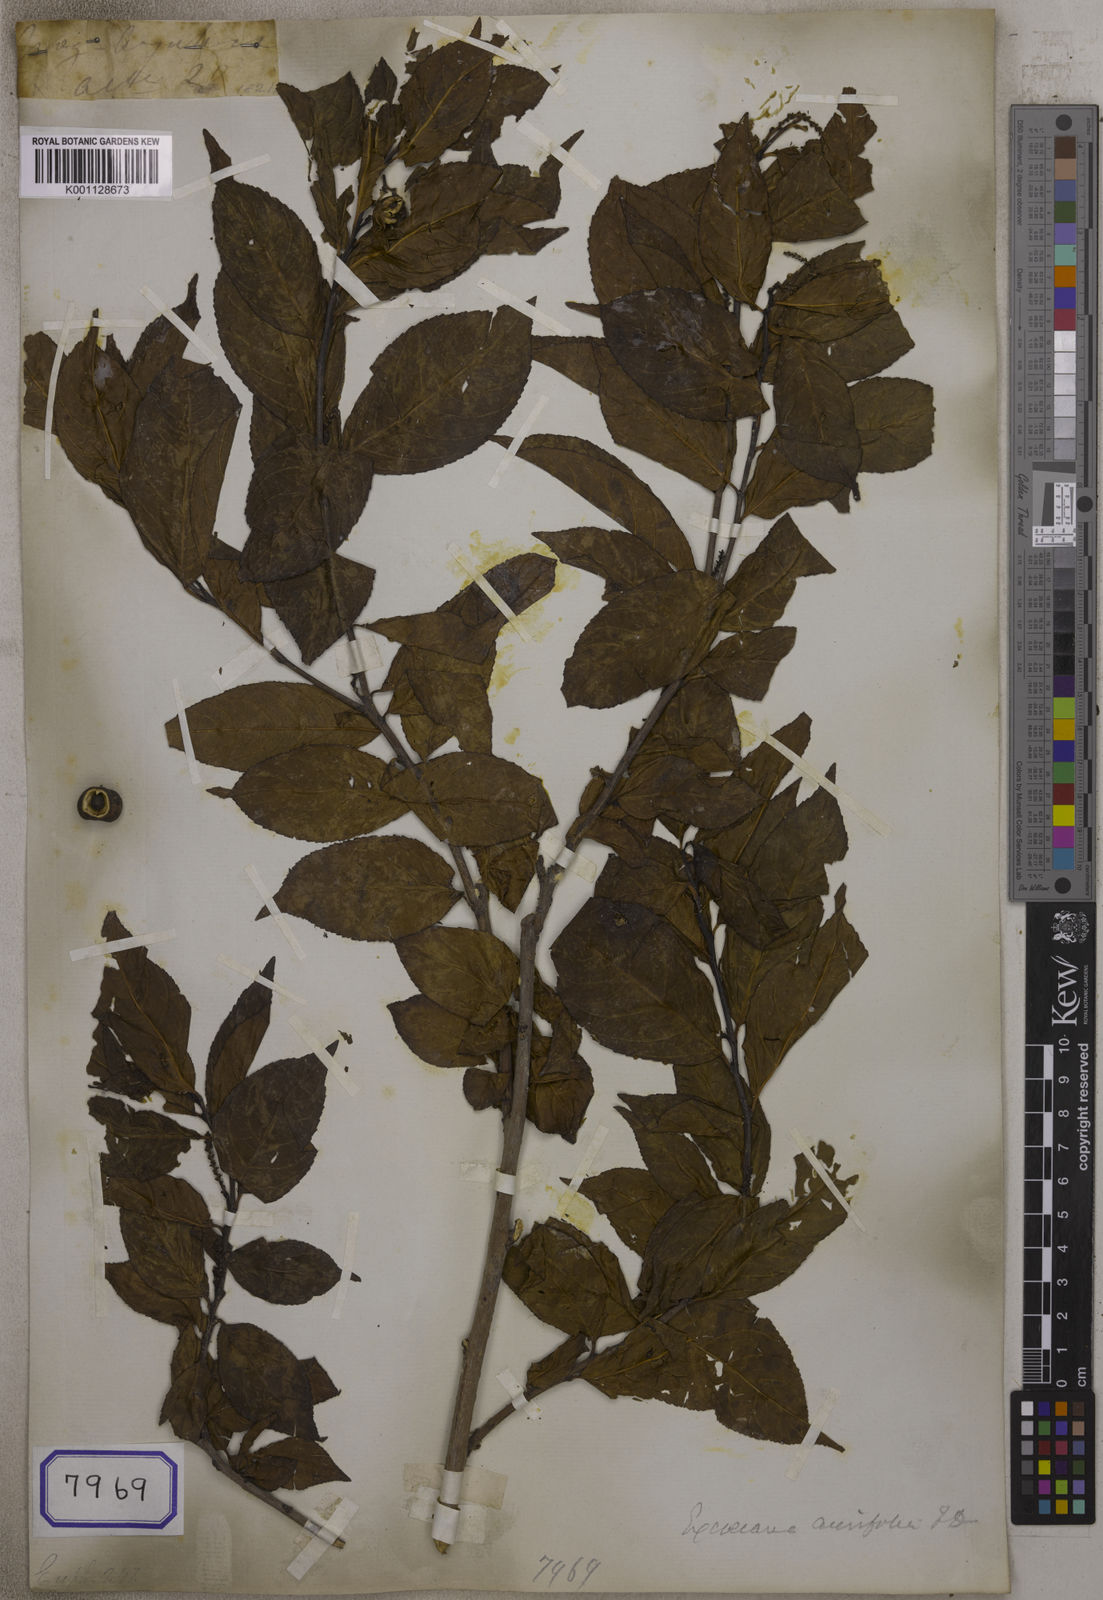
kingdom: Plantae
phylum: Tracheophyta
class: Magnoliopsida
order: Malpighiales
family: Euphorbiaceae
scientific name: Euphorbiaceae
